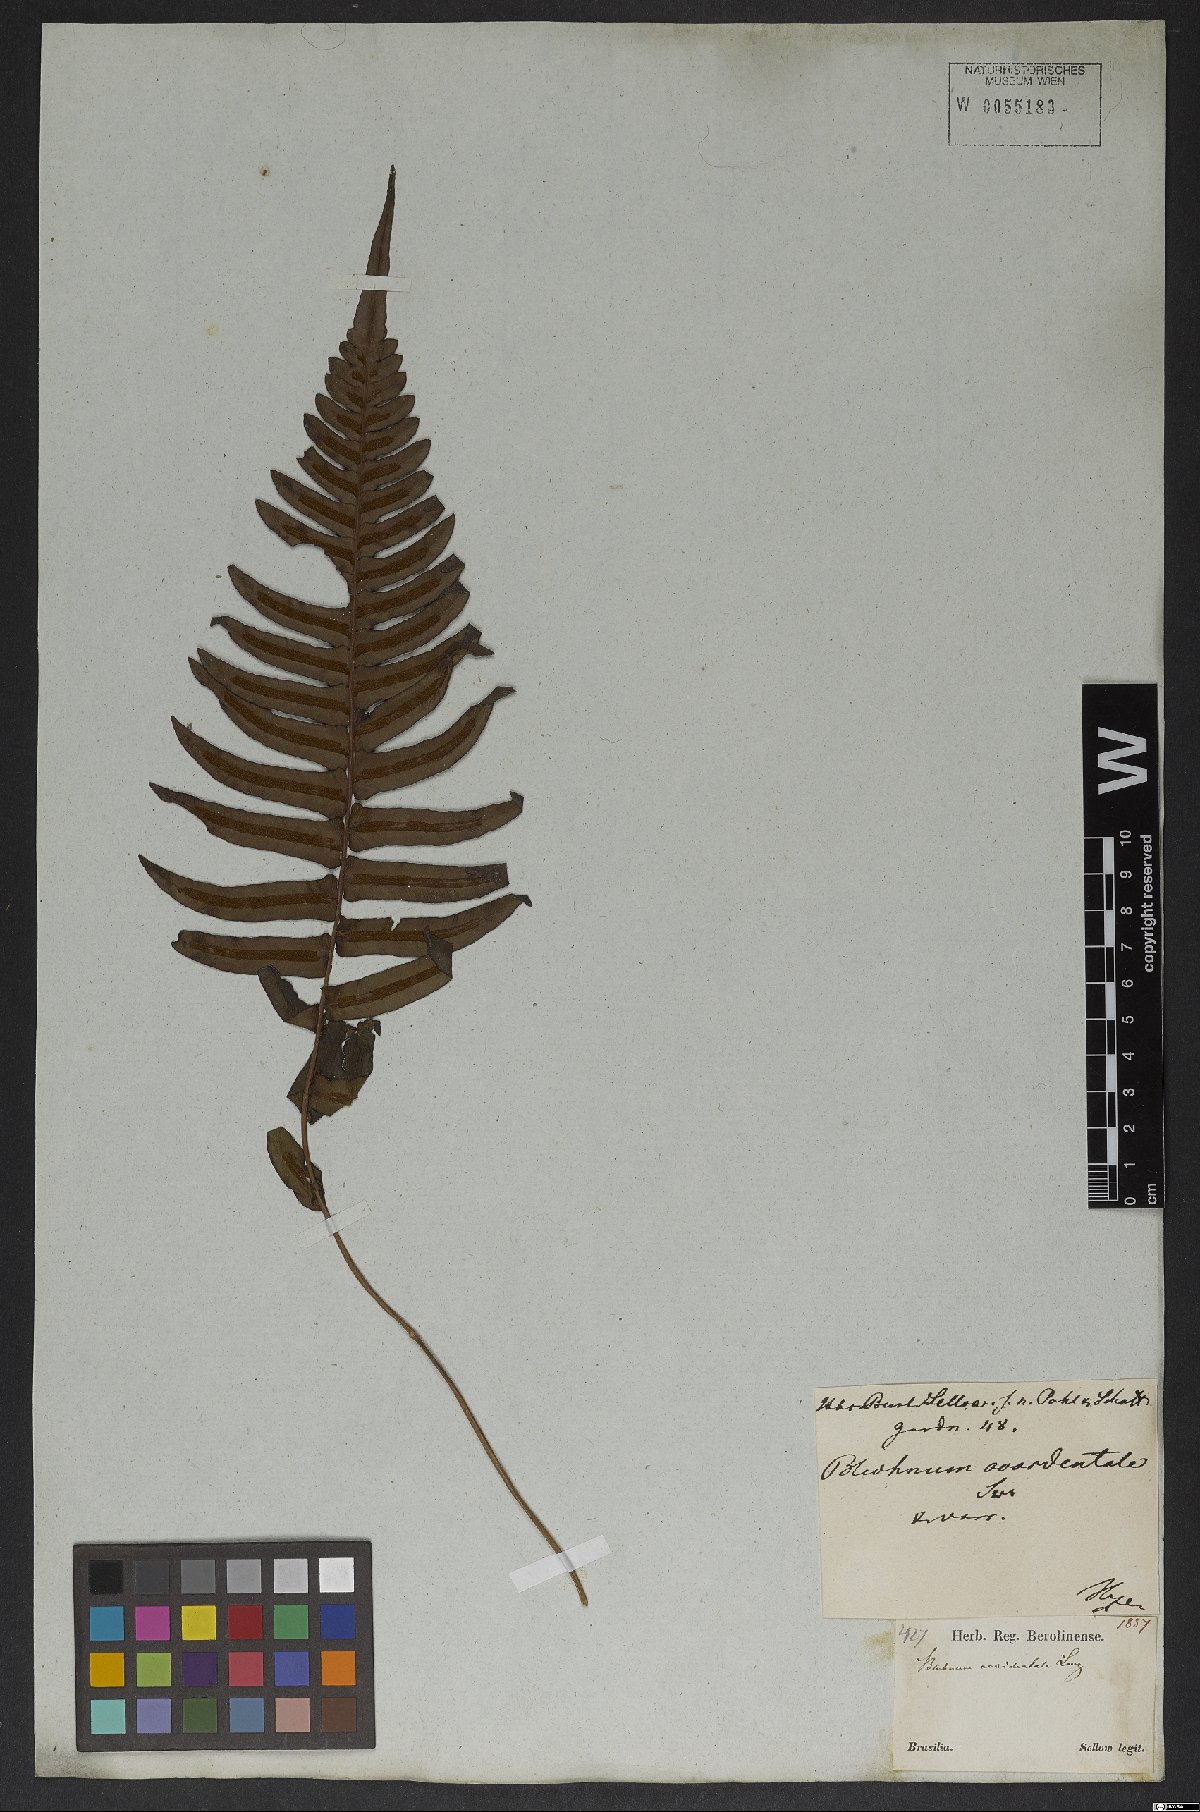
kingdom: Plantae
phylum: Tracheophyta
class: Polypodiopsida
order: Polypodiales
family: Blechnaceae
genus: Blechnum
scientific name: Blechnum occidentale
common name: Hammock fern
